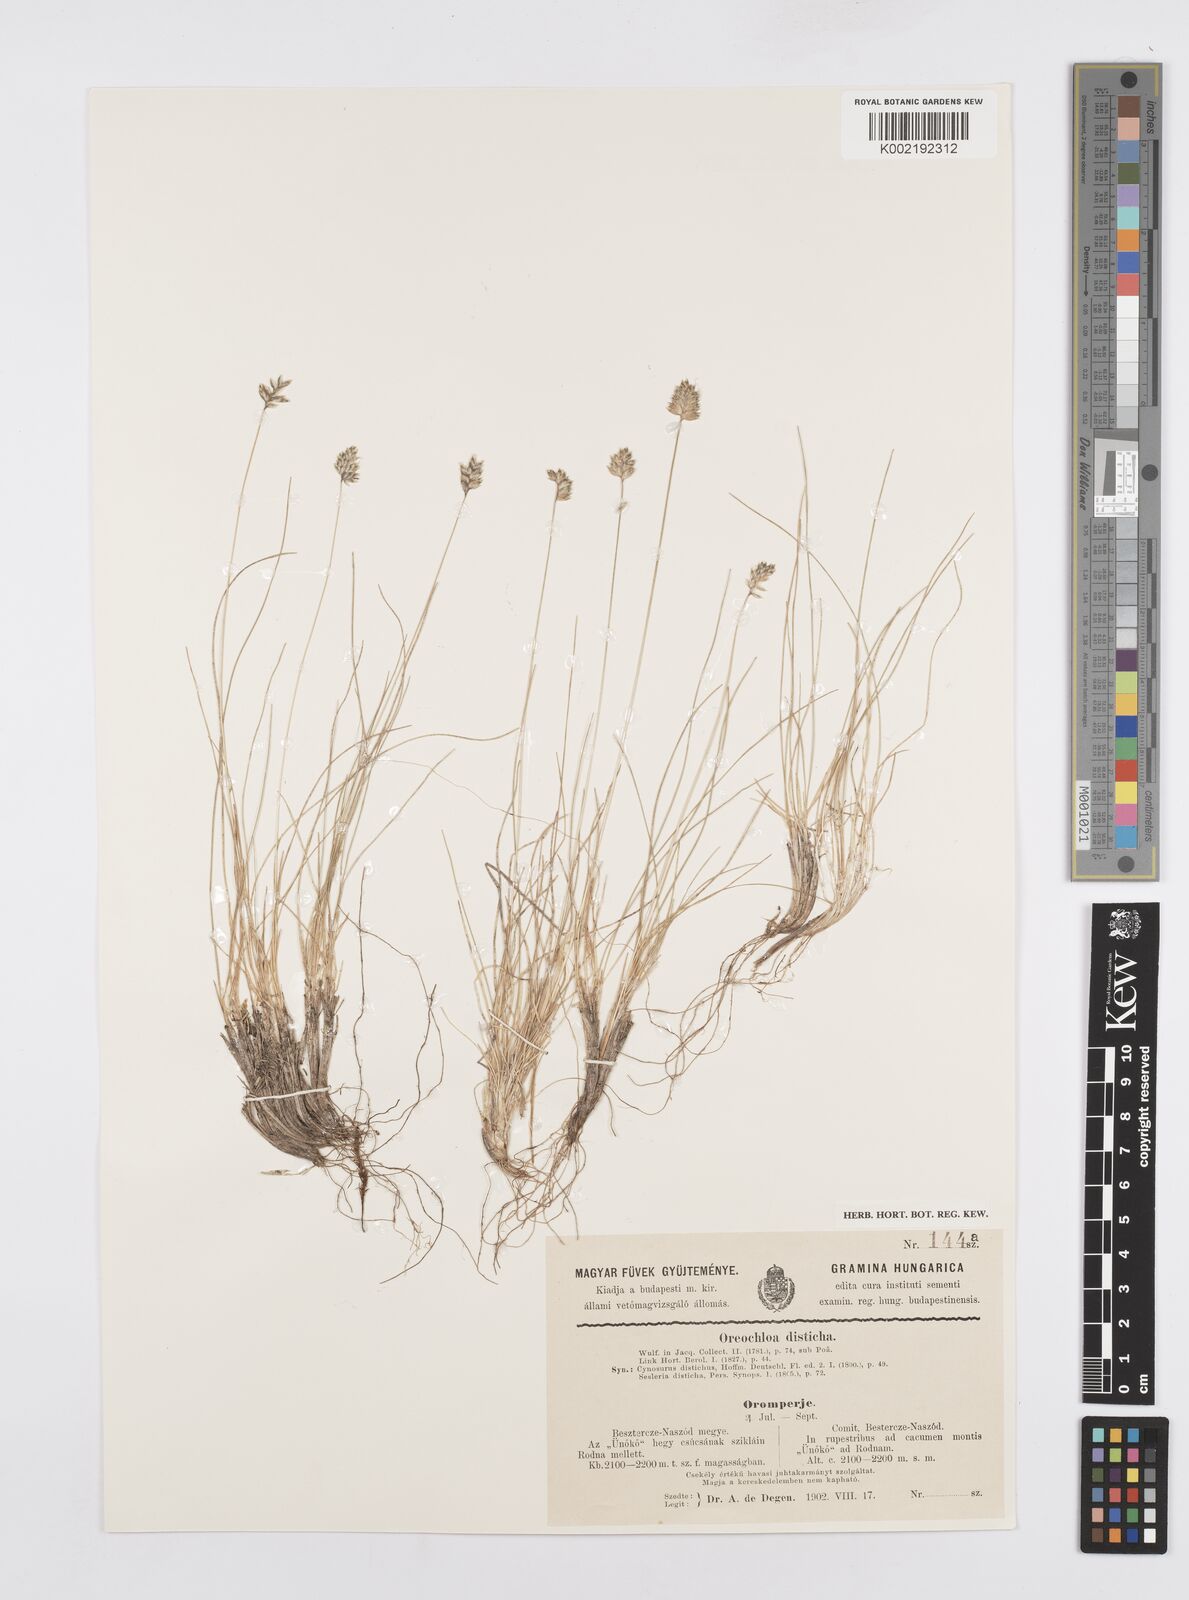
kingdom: Plantae
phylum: Tracheophyta
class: Liliopsida
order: Poales
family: Poaceae
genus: Oreochloa
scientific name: Oreochloa disticha
